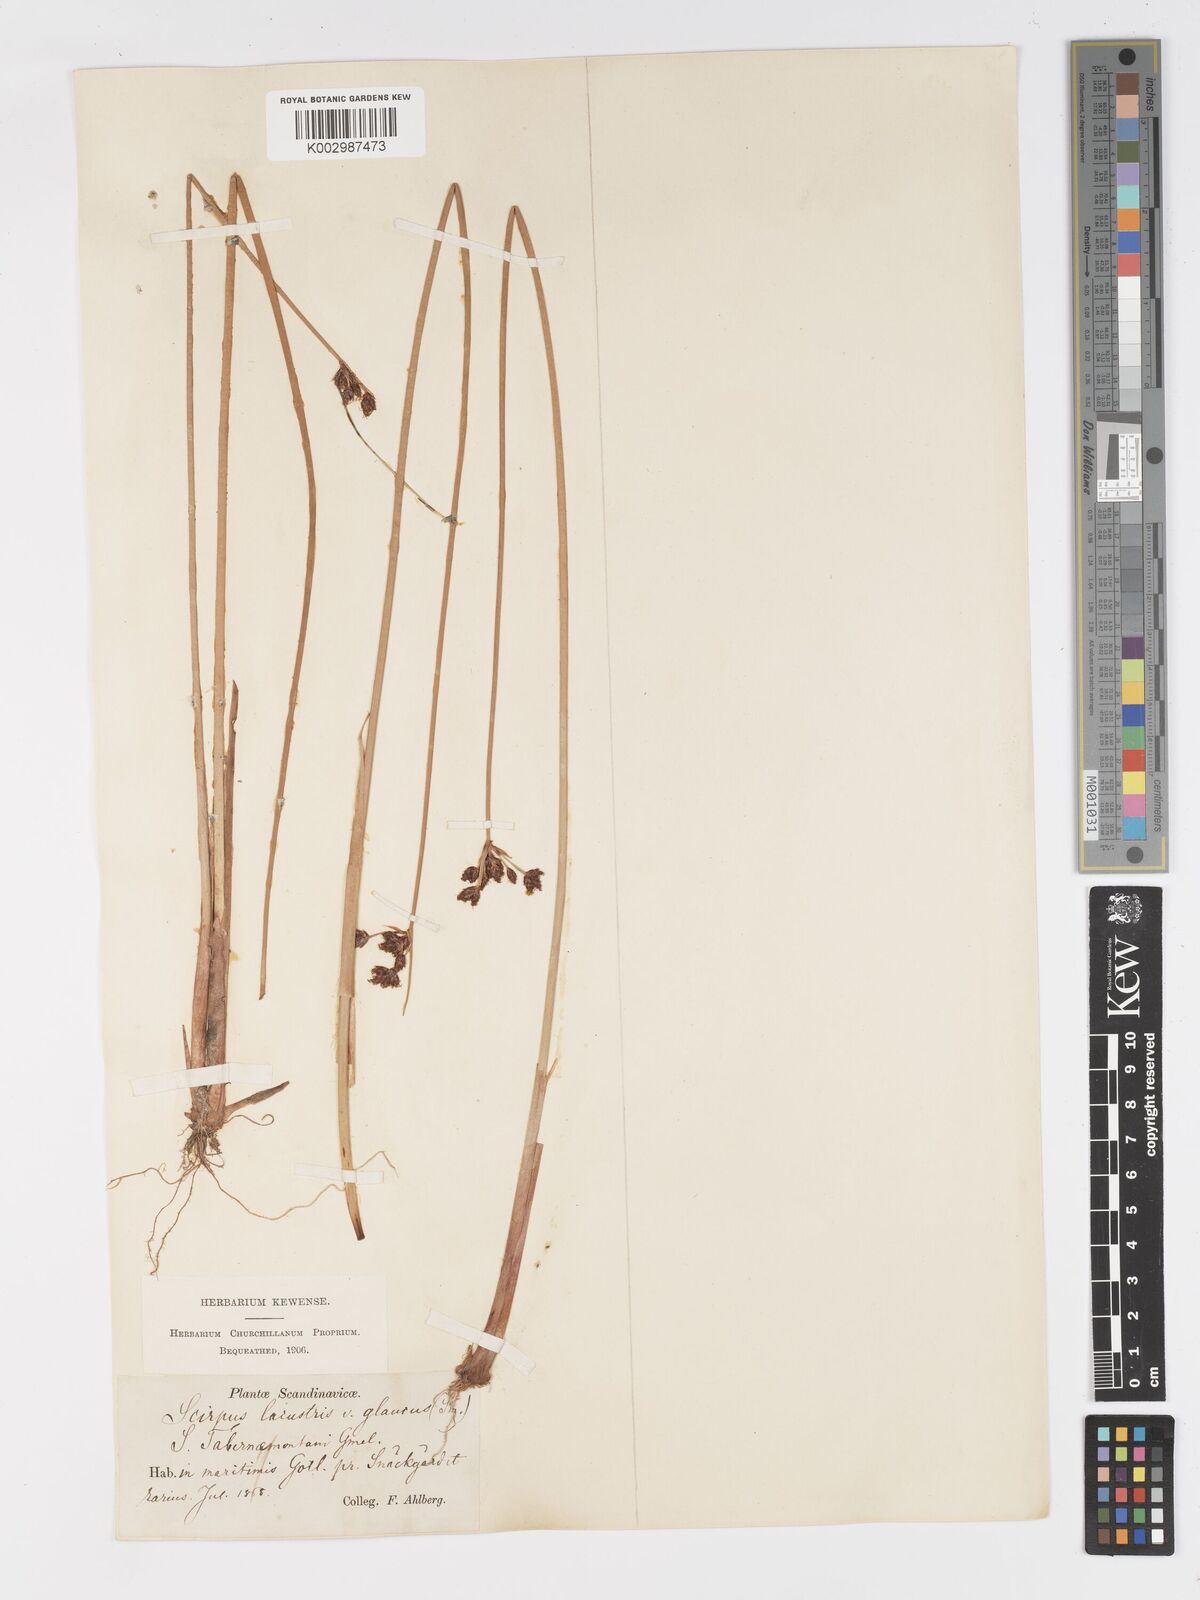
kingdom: Plantae
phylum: Tracheophyta
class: Liliopsida
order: Poales
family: Cyperaceae
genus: Schoenoplectus
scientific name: Schoenoplectus lacustris
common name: Common club-rush
